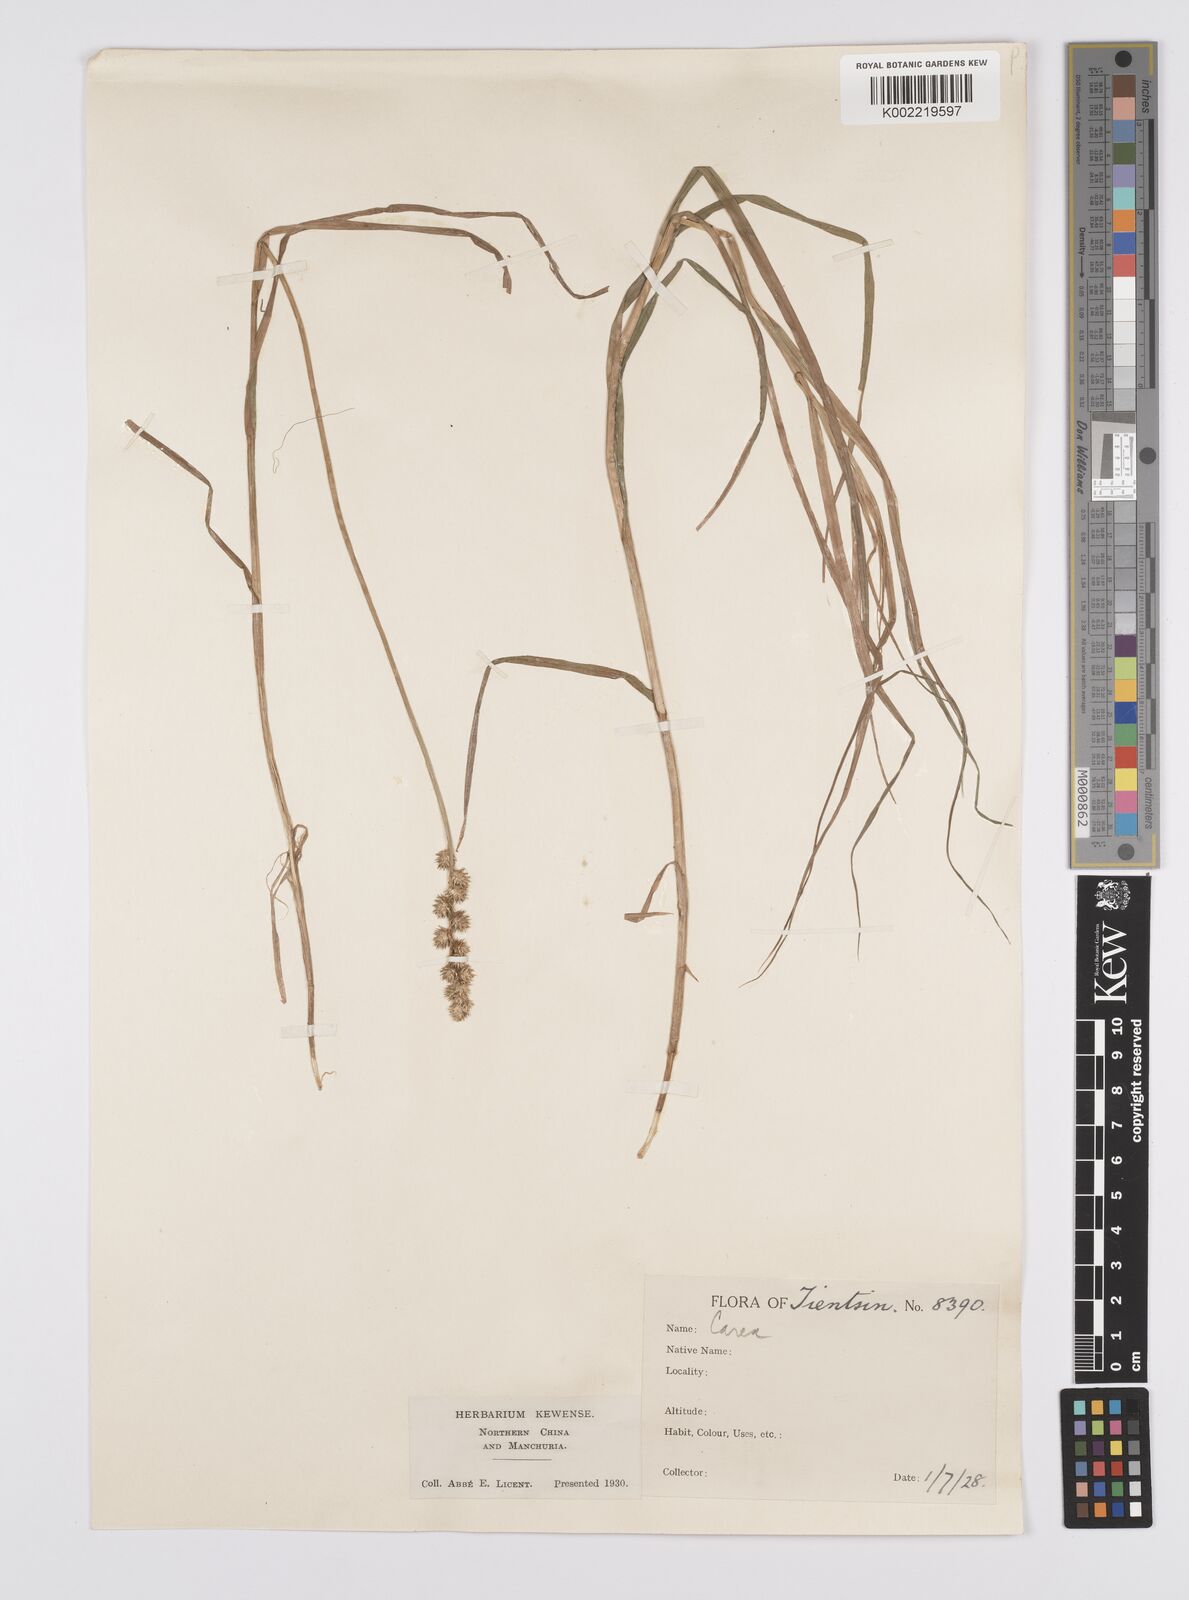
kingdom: Plantae
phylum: Tracheophyta
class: Liliopsida
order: Poales
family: Cyperaceae
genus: Carex
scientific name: Carex maackii
